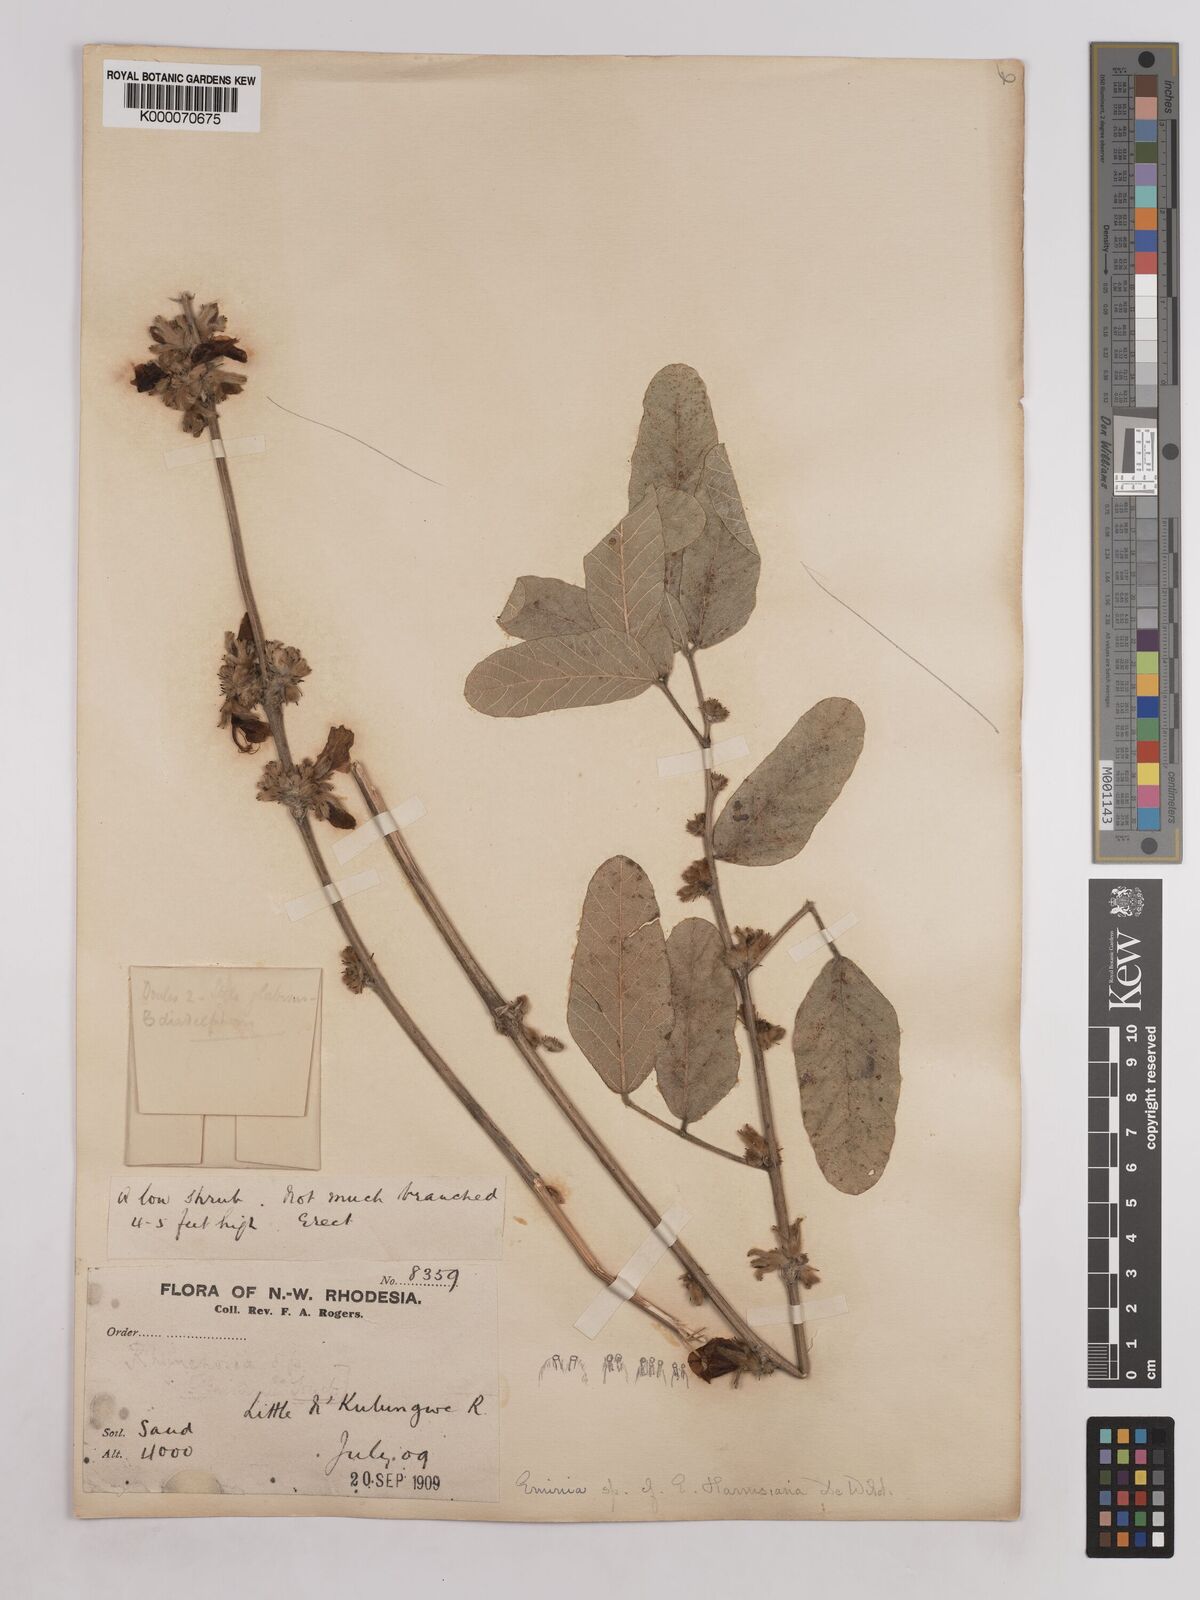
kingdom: Plantae
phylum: Tracheophyta
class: Magnoliopsida
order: Fabales
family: Fabaceae
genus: Eminia
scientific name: Eminia harmsiana
